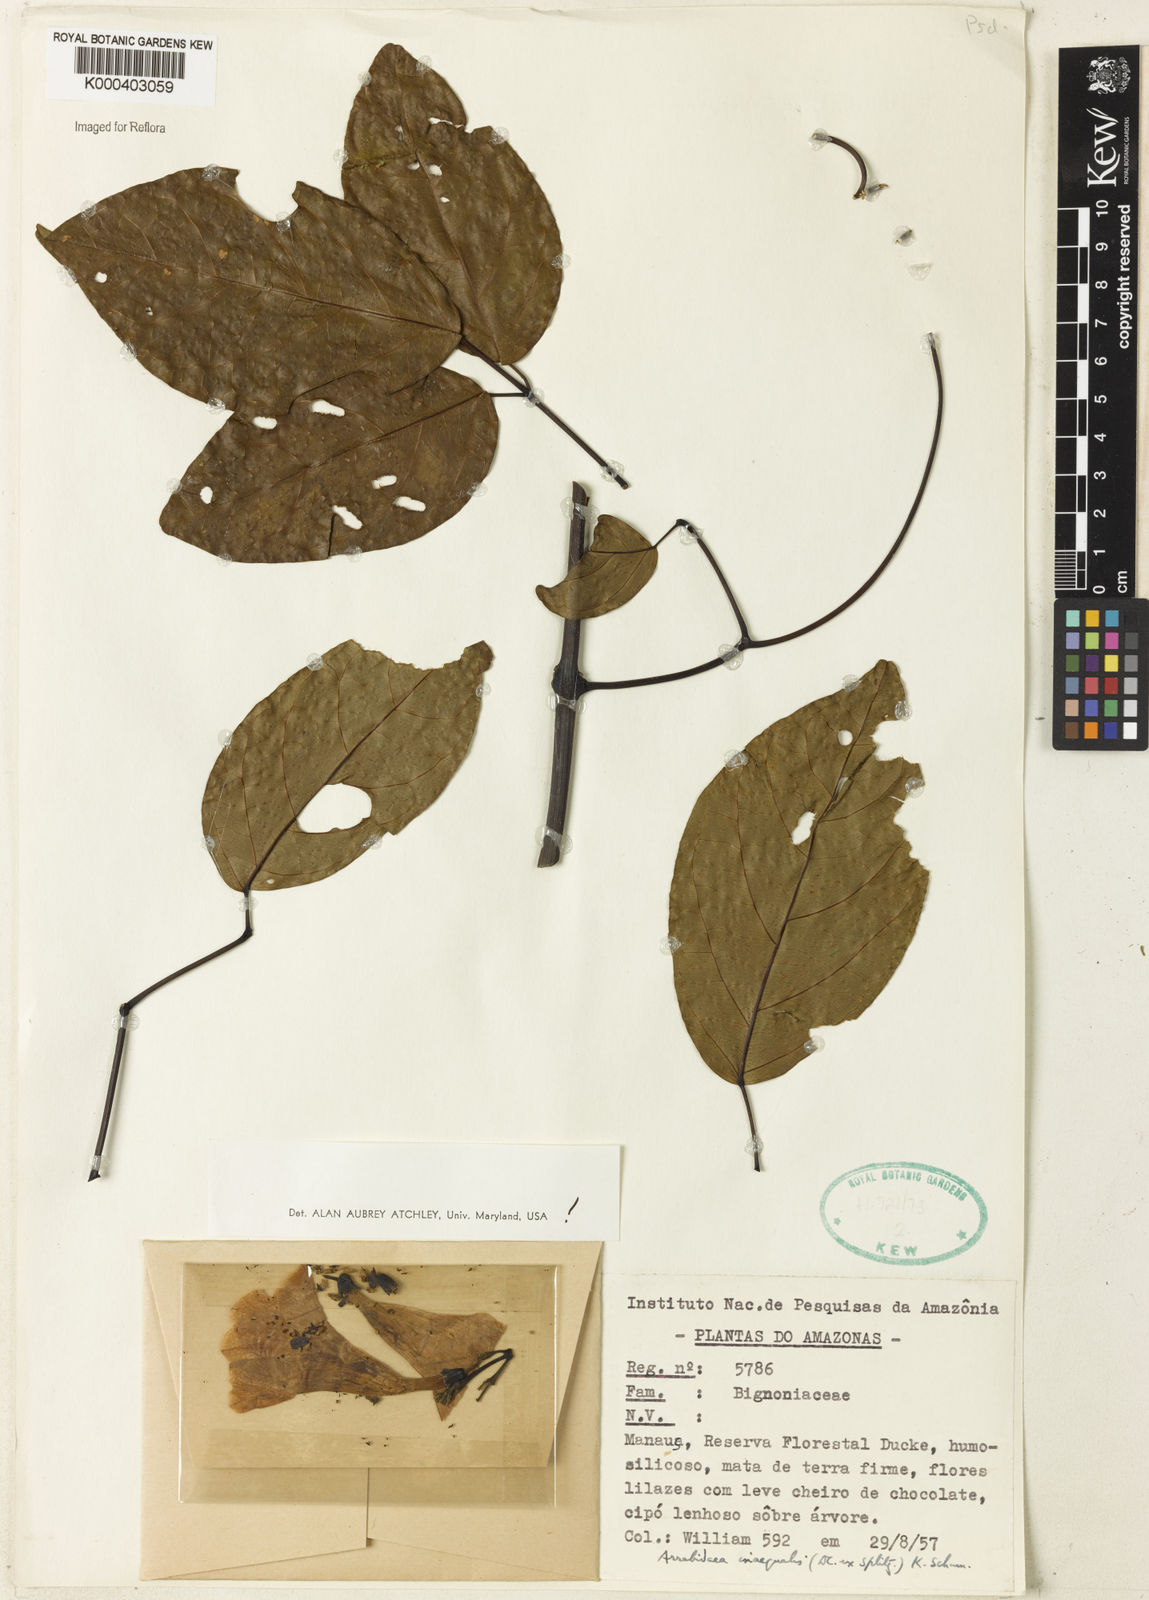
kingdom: Plantae
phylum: Tracheophyta
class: Magnoliopsida
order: Lamiales
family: Bignoniaceae
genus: Cuspidaria
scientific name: Cuspidaria inaequalis
